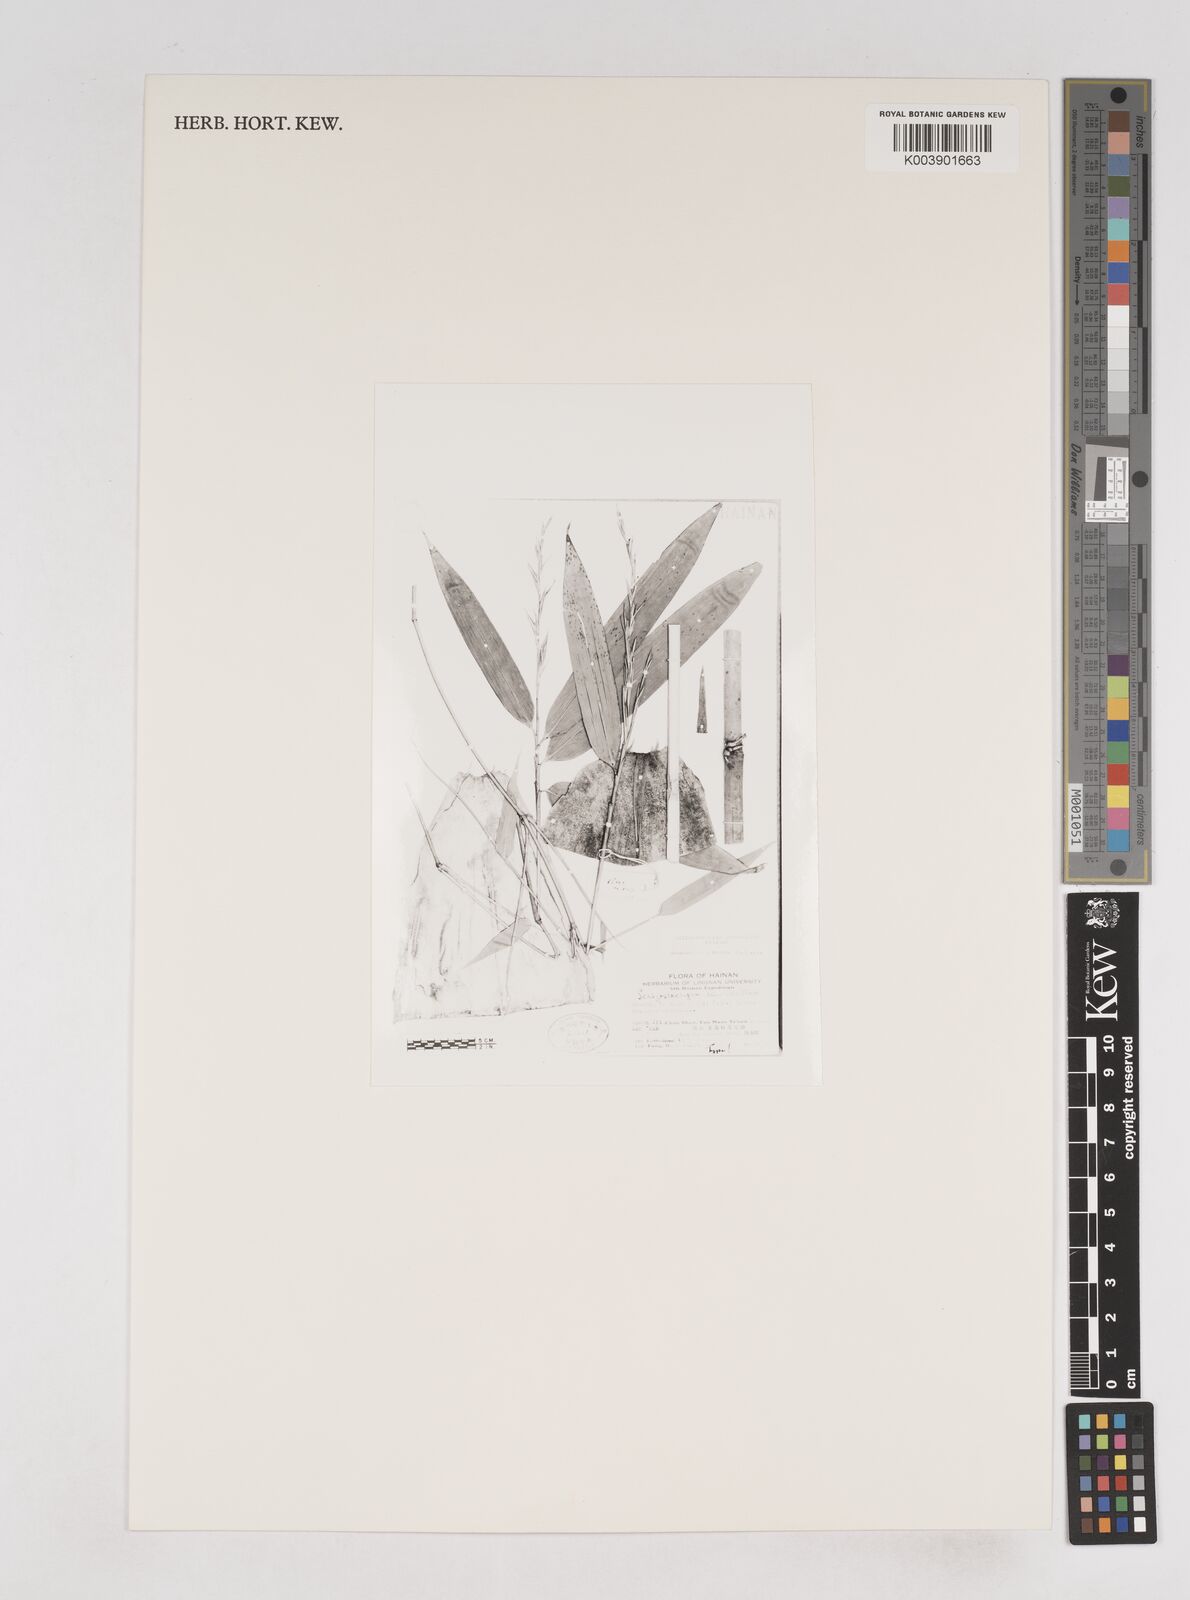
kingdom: Plantae
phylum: Tracheophyta
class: Liliopsida
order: Poales
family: Poaceae
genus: Schizostachyum
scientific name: Schizostachyum pseudolima
